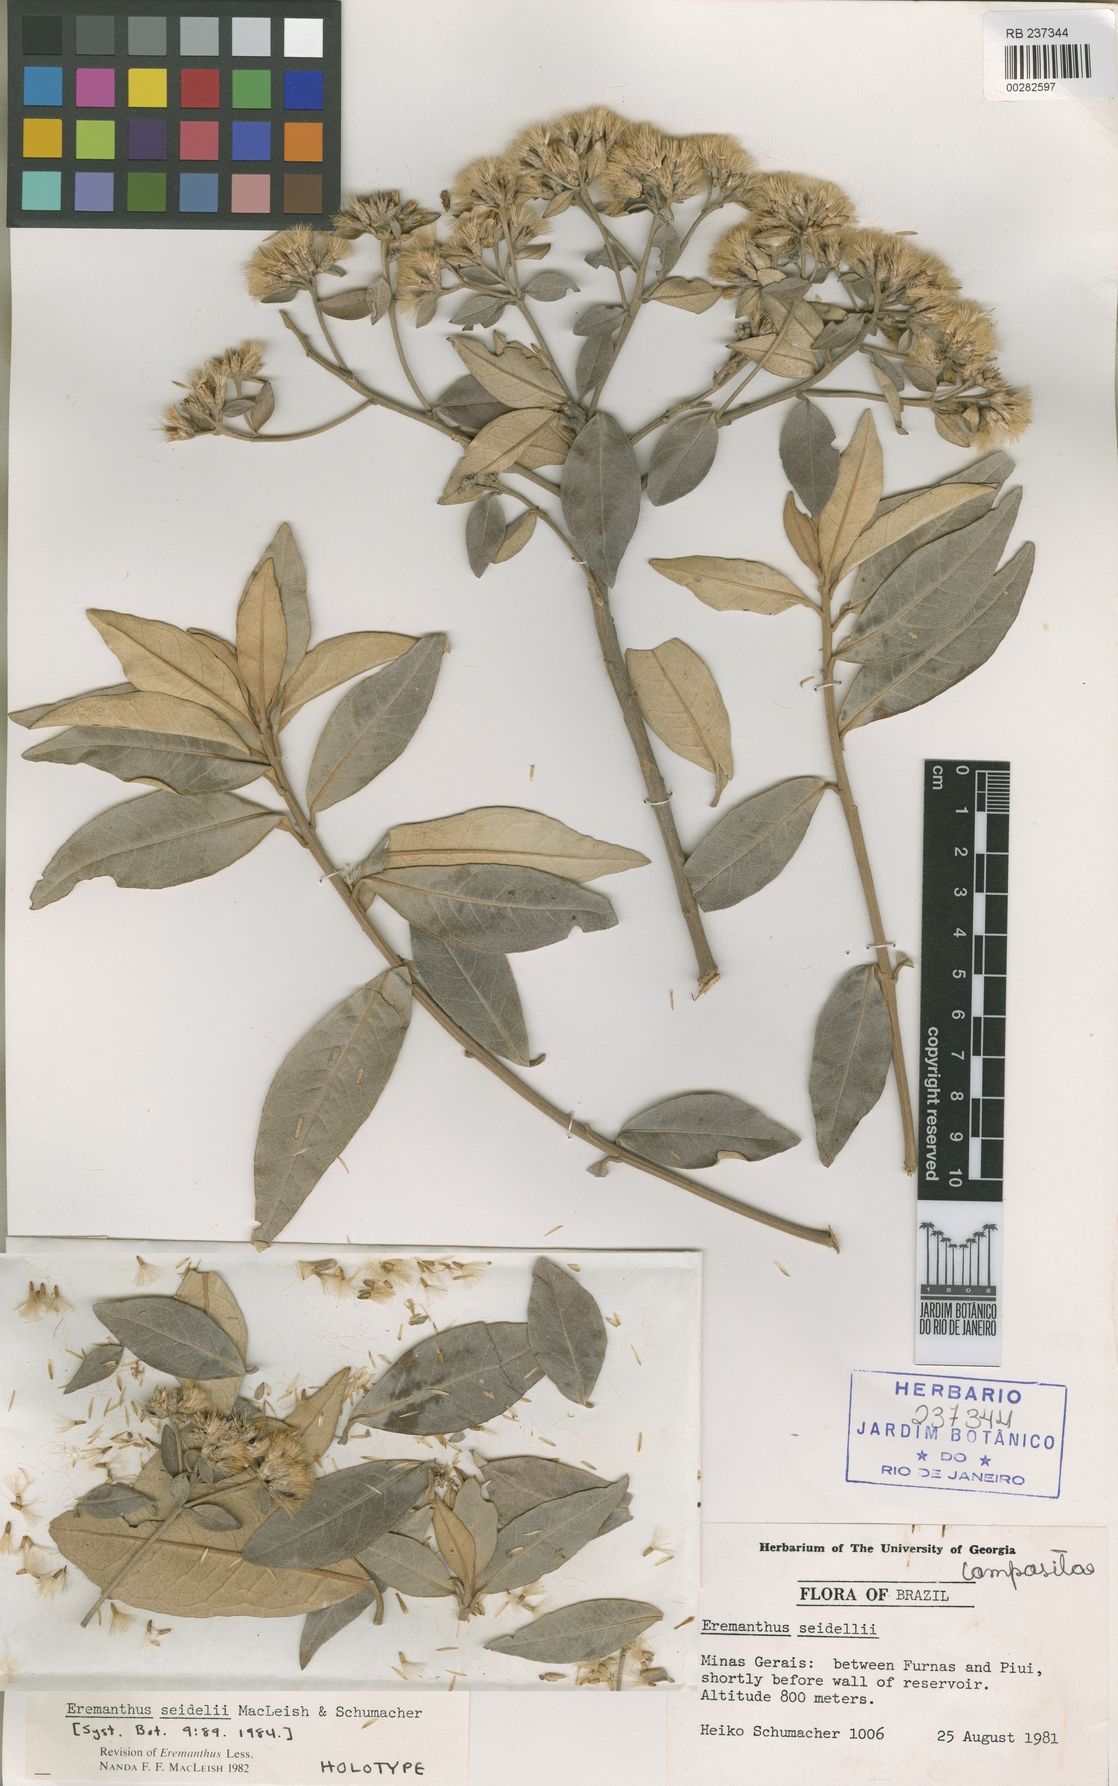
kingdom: Plantae
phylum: Tracheophyta
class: Magnoliopsida
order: Asterales
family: Asteraceae
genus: Eremanthus
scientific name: Eremanthus elaeagnus
